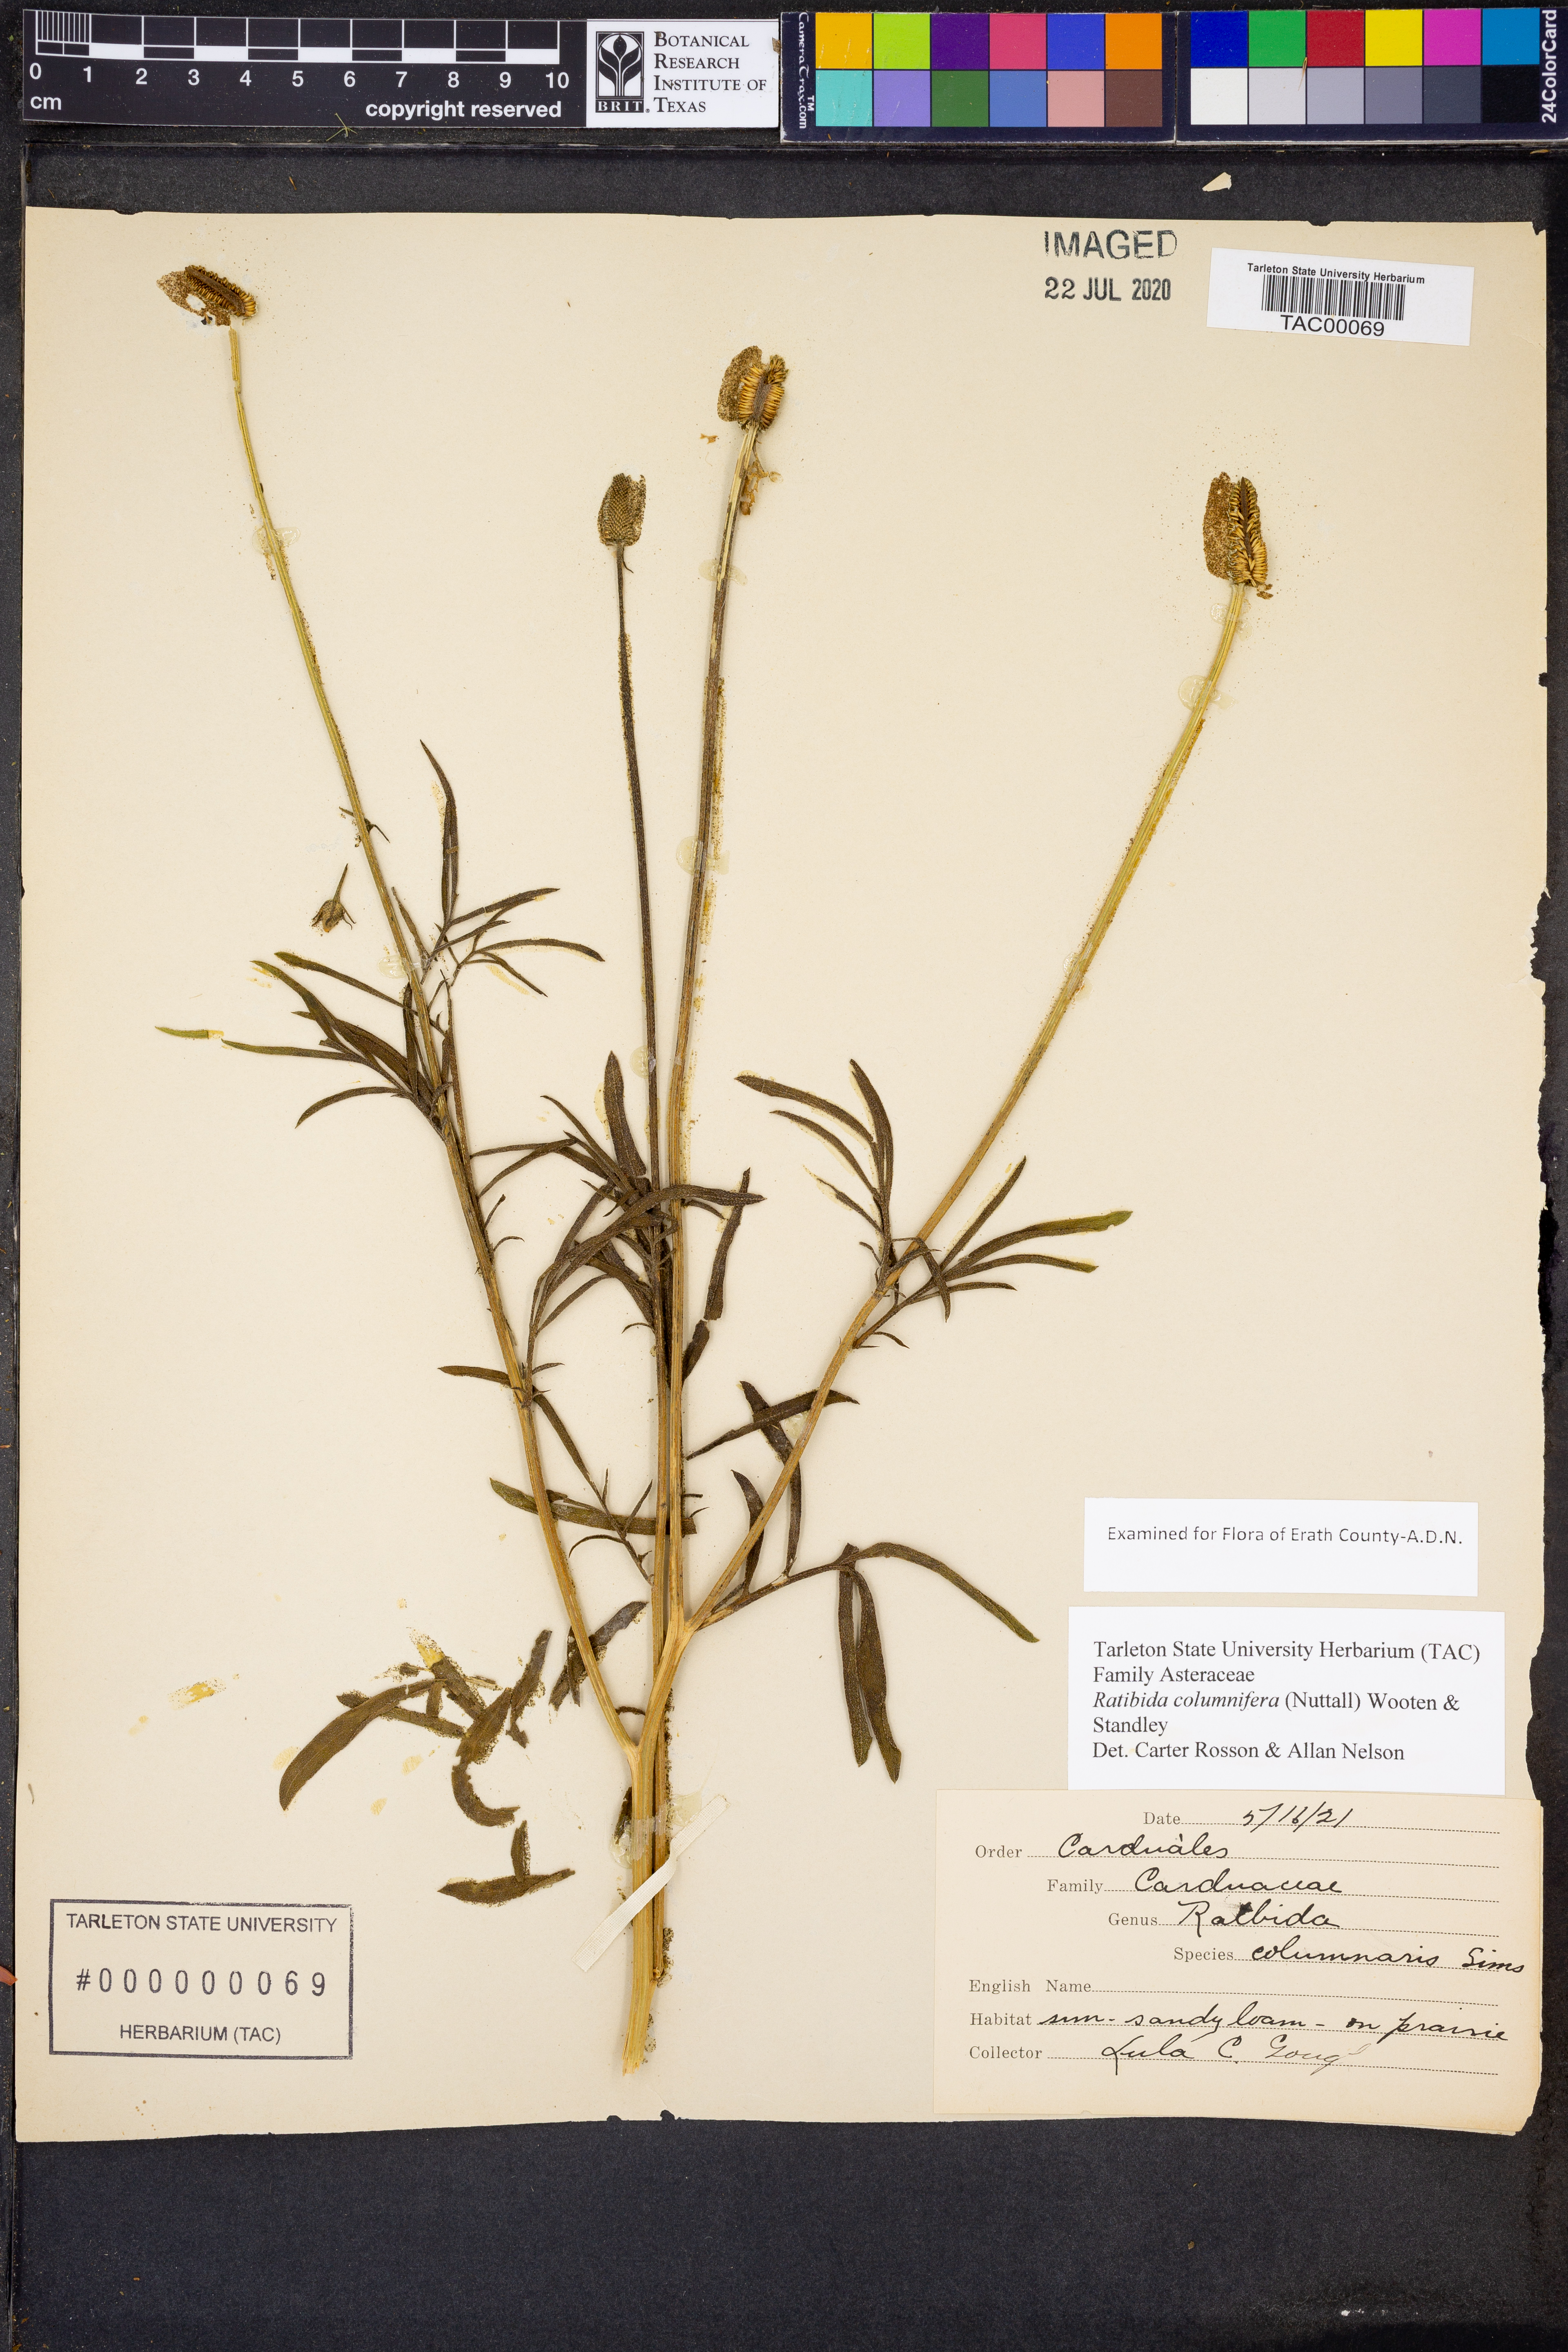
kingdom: Plantae
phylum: Tracheophyta
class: Magnoliopsida
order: Asterales
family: Asteraceae
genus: Ratibida
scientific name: Ratibida columnifera
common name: Prairie coneflower
